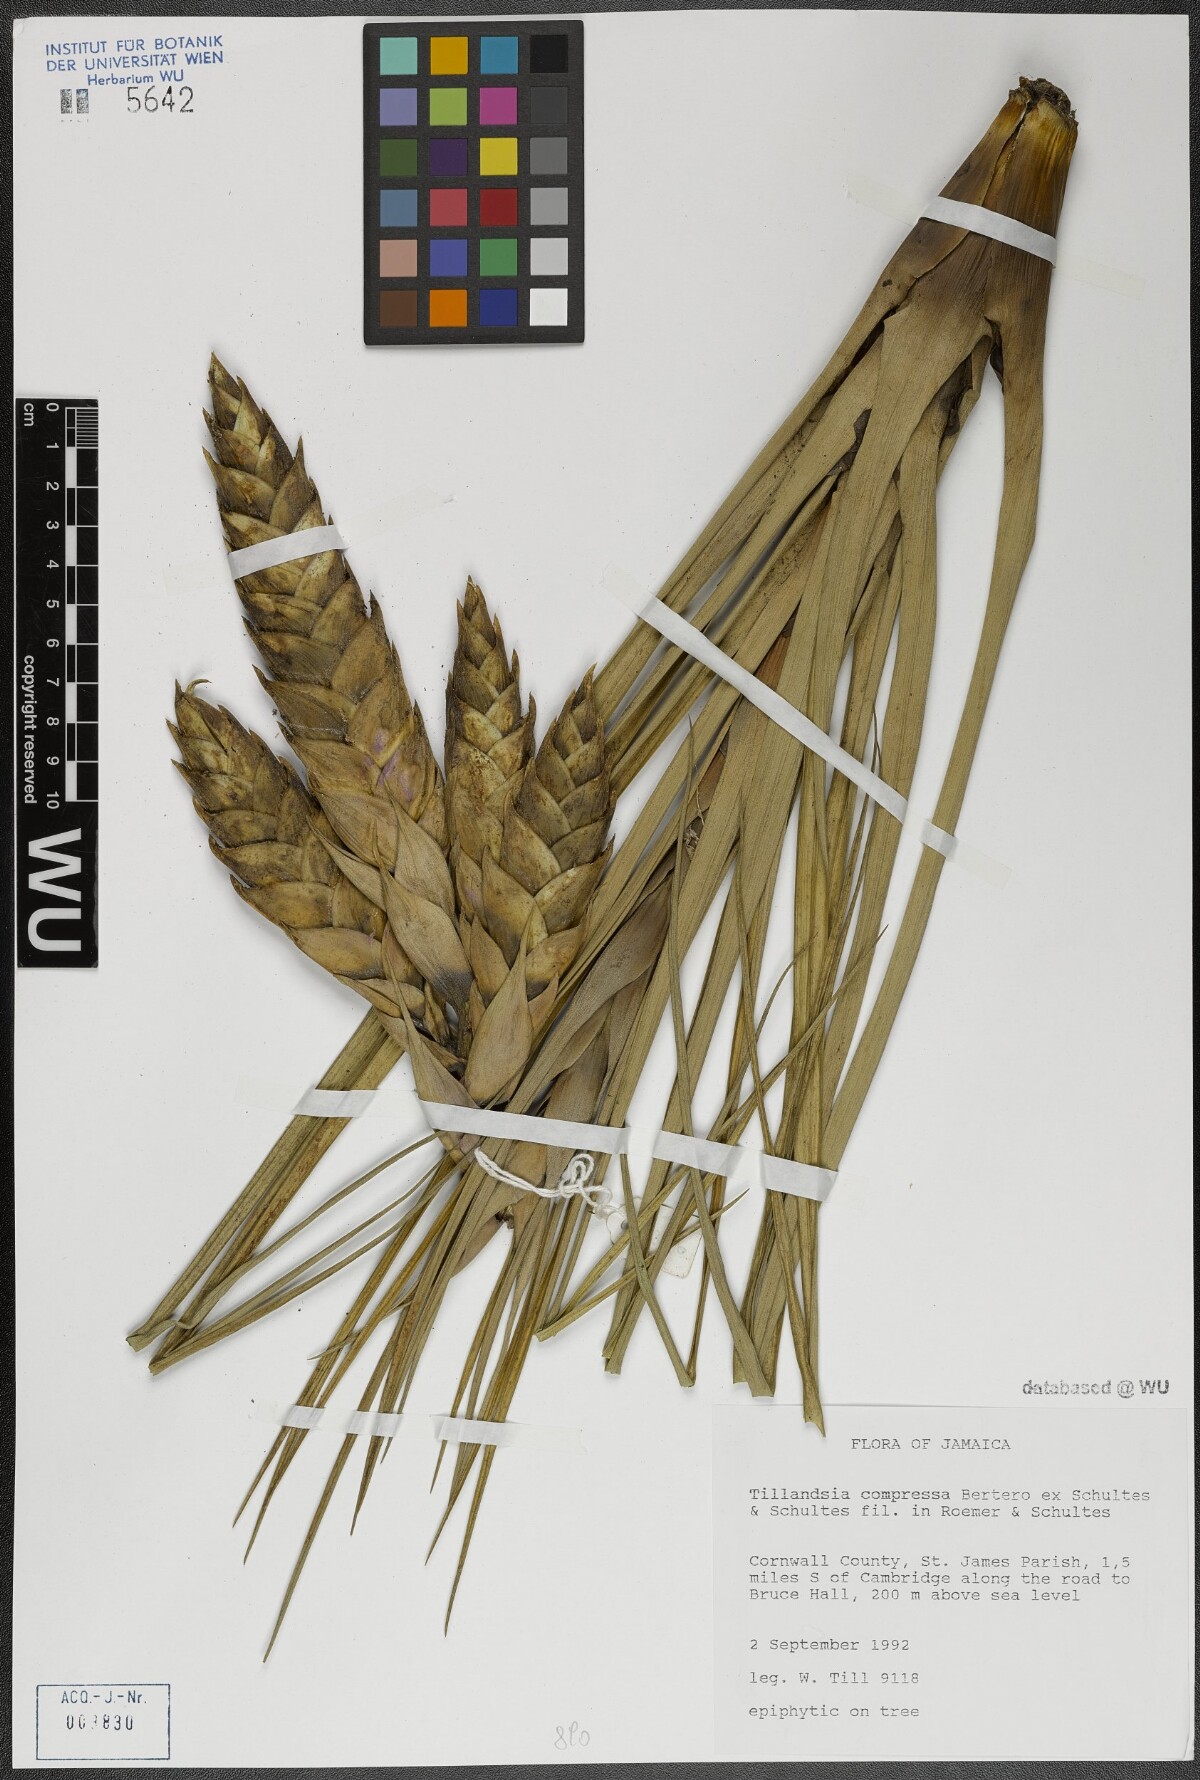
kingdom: Plantae
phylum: Tracheophyta
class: Liliopsida
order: Poales
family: Bromeliaceae
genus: Tillandsia
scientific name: Tillandsia compressa
